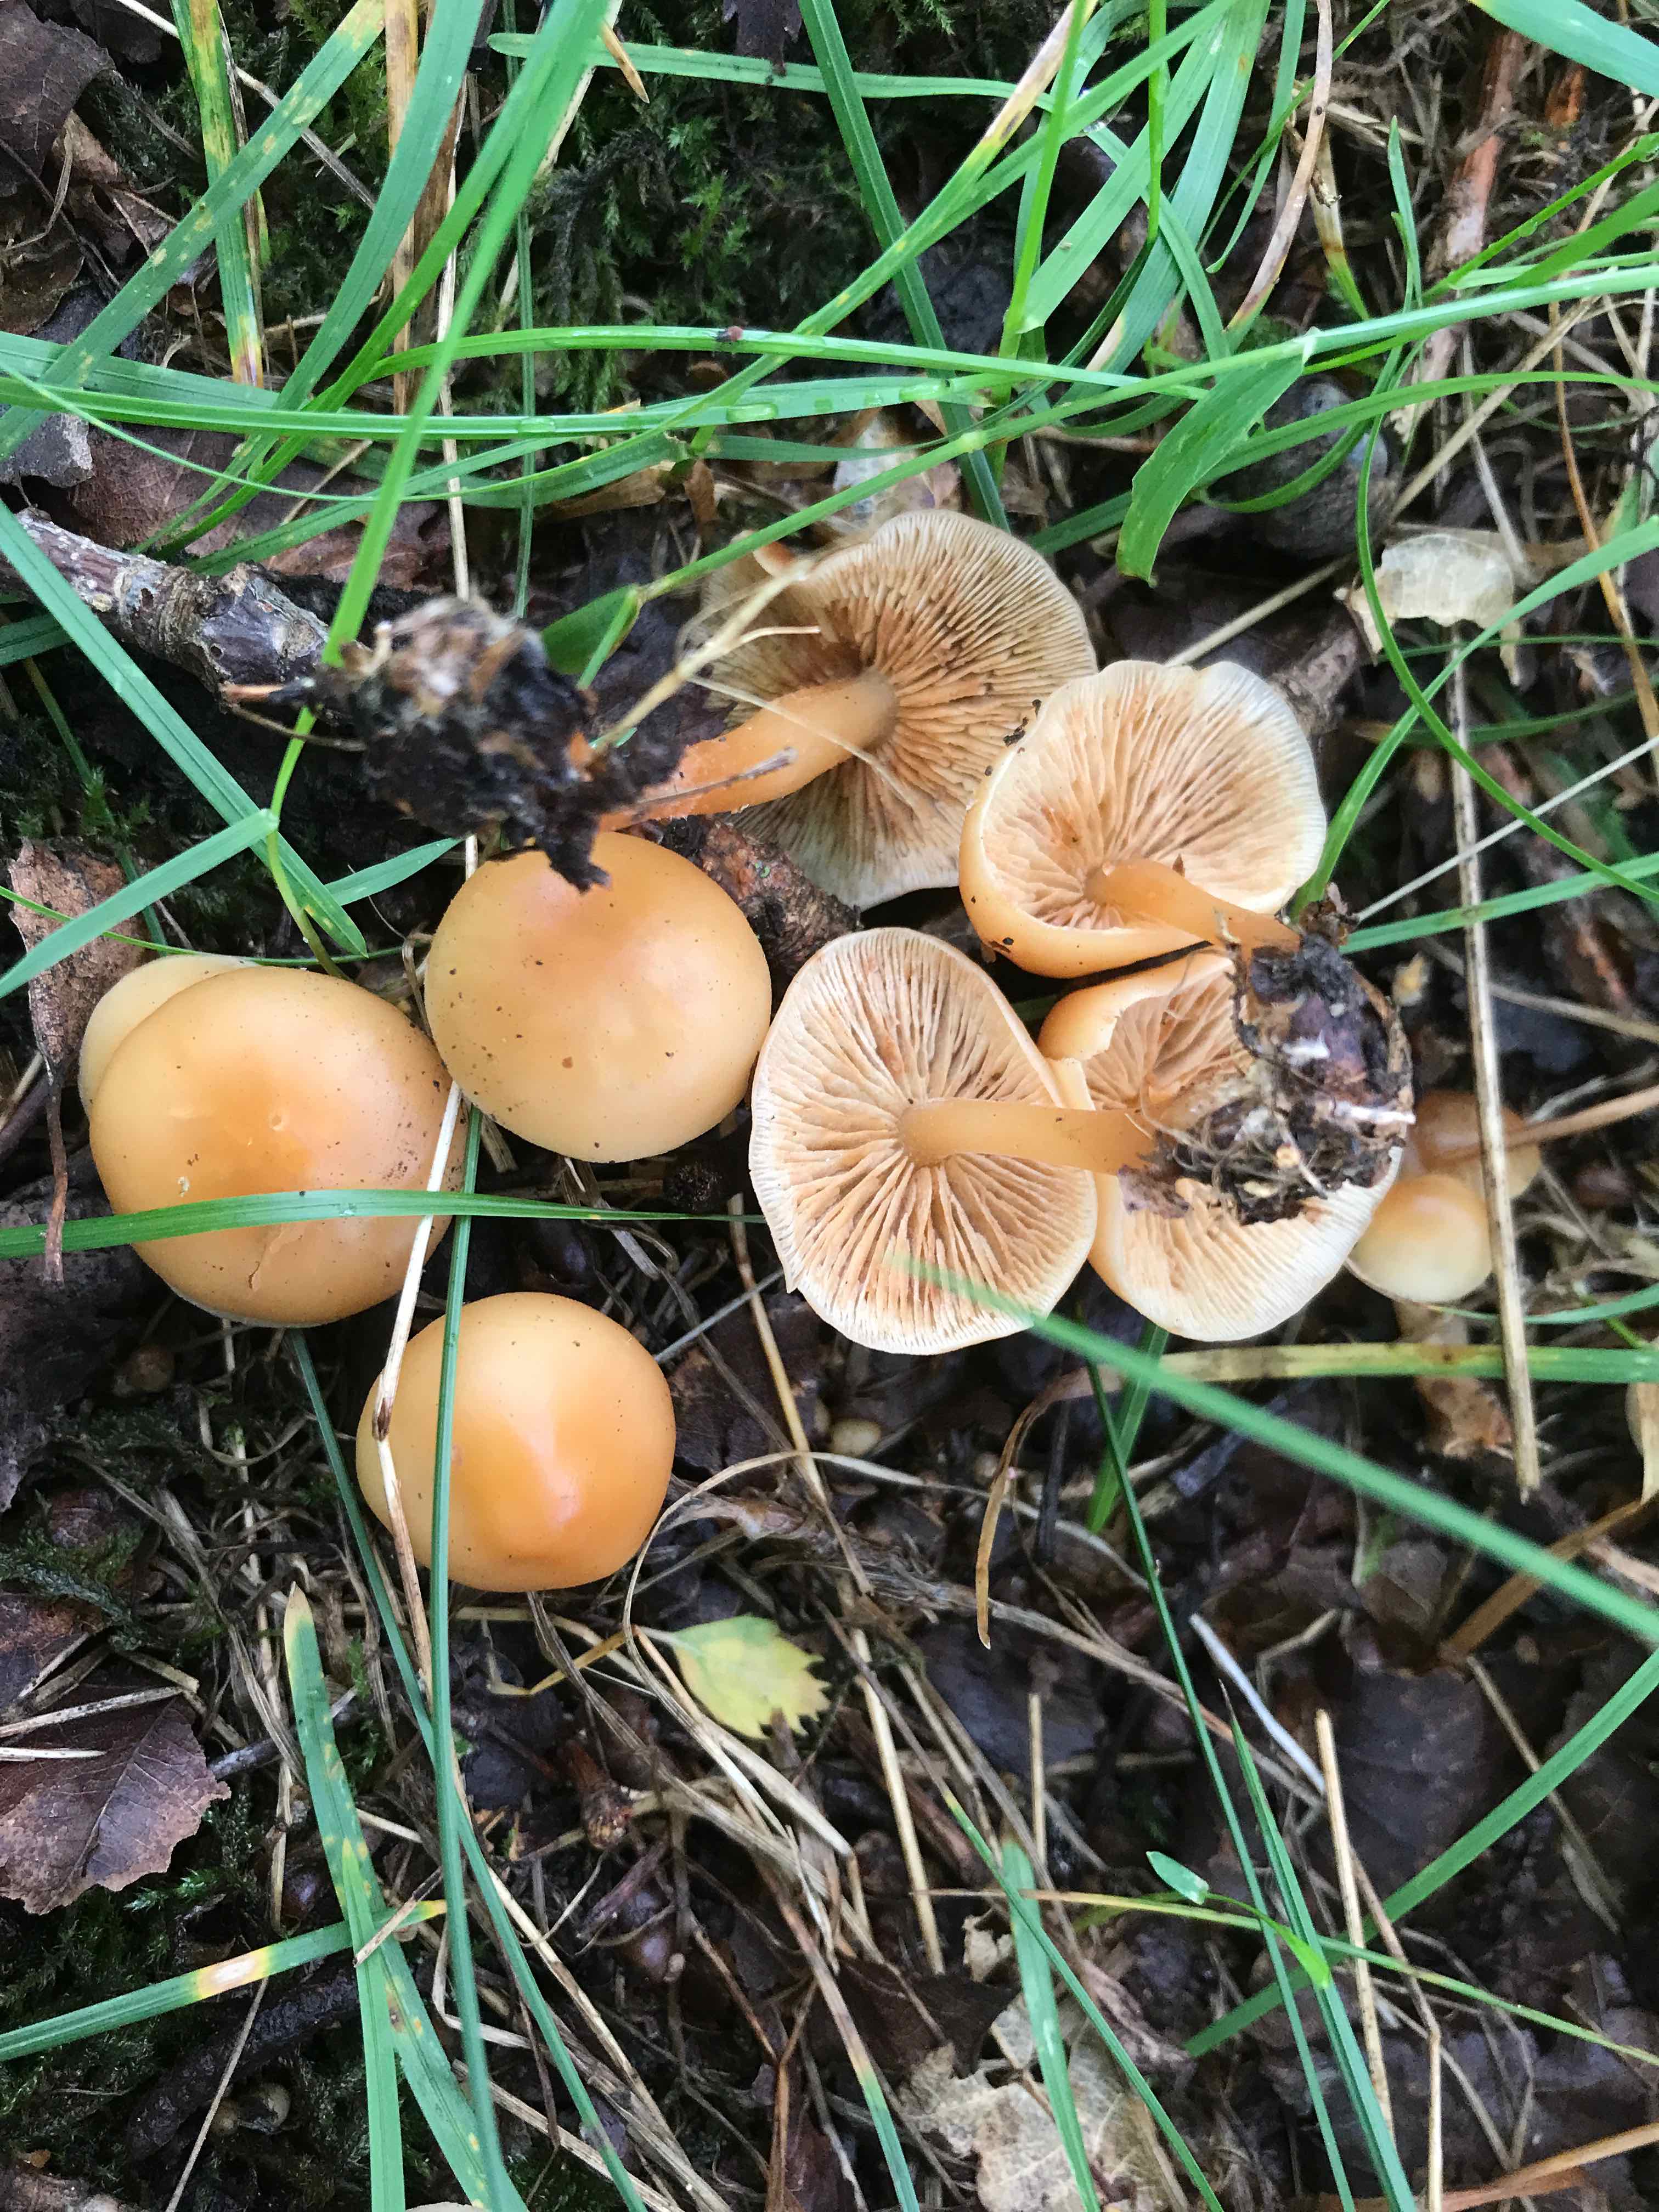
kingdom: Fungi
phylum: Basidiomycota
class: Agaricomycetes
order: Agaricales
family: Omphalotaceae
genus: Gymnopus
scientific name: Gymnopus dryophilus
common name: løv-fladhat
